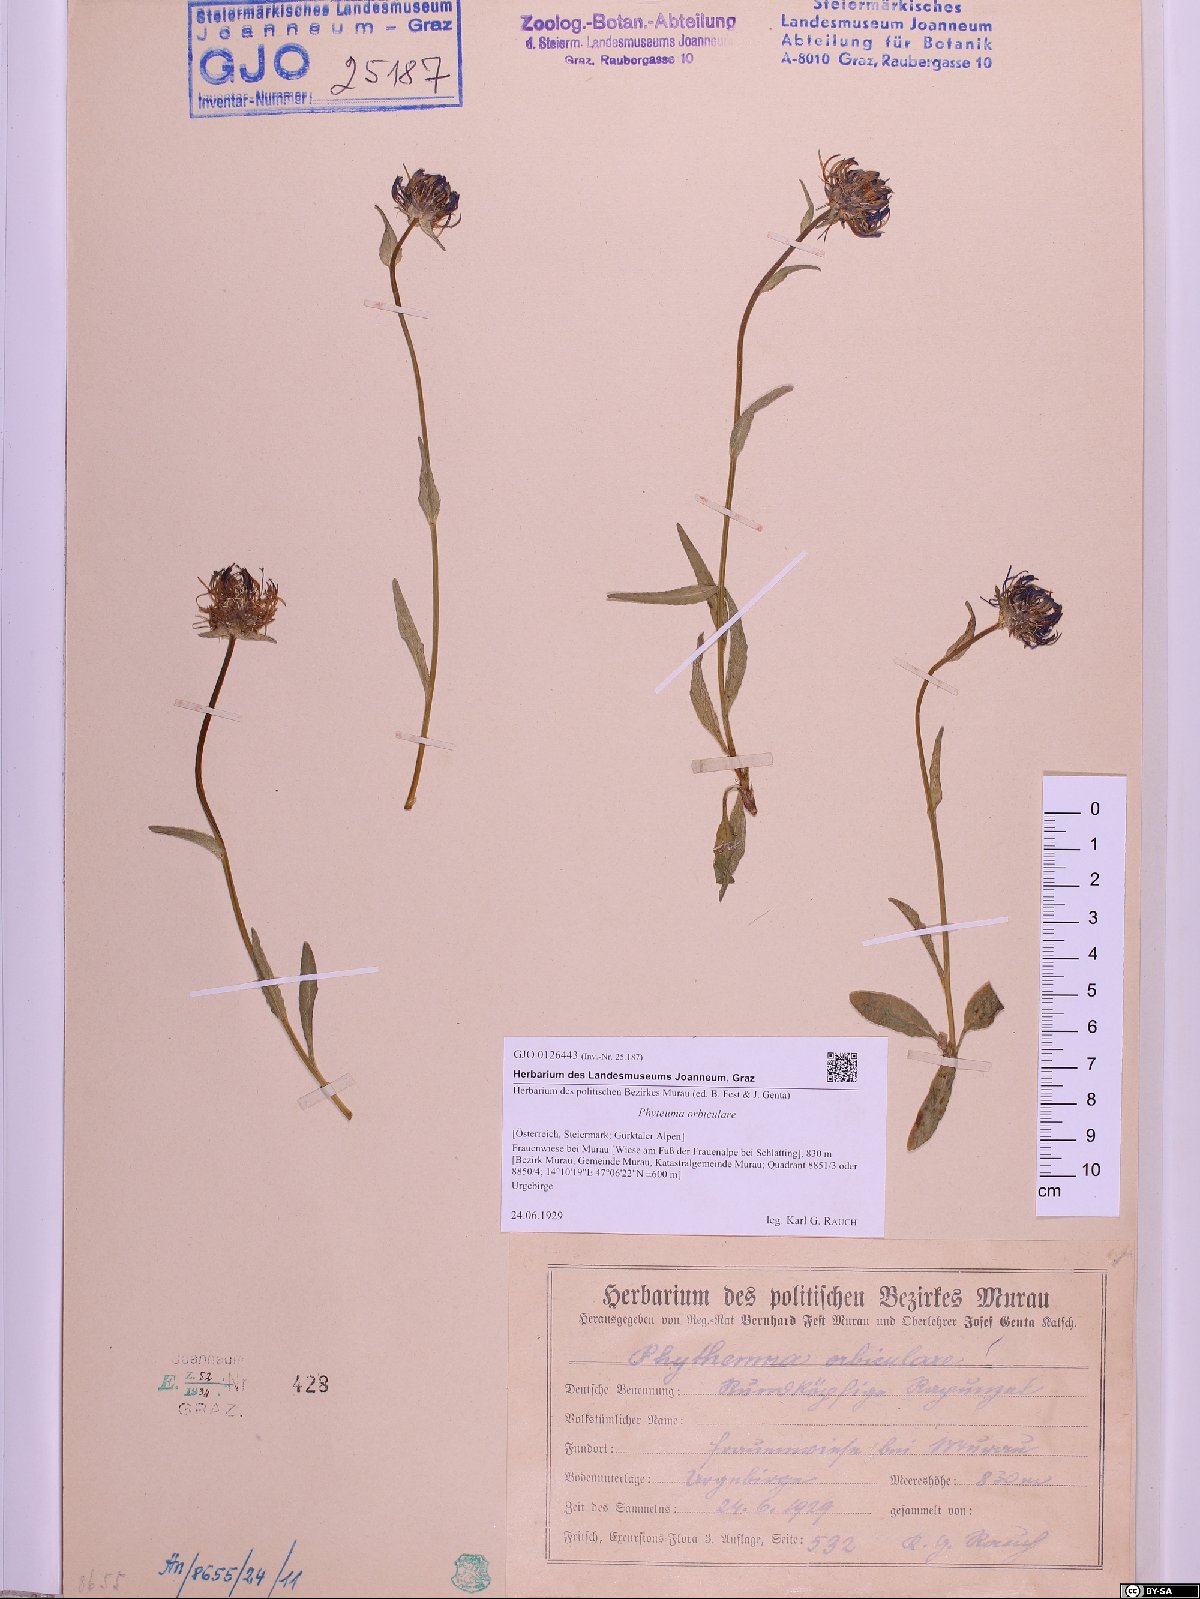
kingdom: Plantae
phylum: Tracheophyta
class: Magnoliopsida
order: Asterales
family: Campanulaceae
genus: Phyteuma
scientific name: Phyteuma orbiculare
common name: Round-headed rampion
